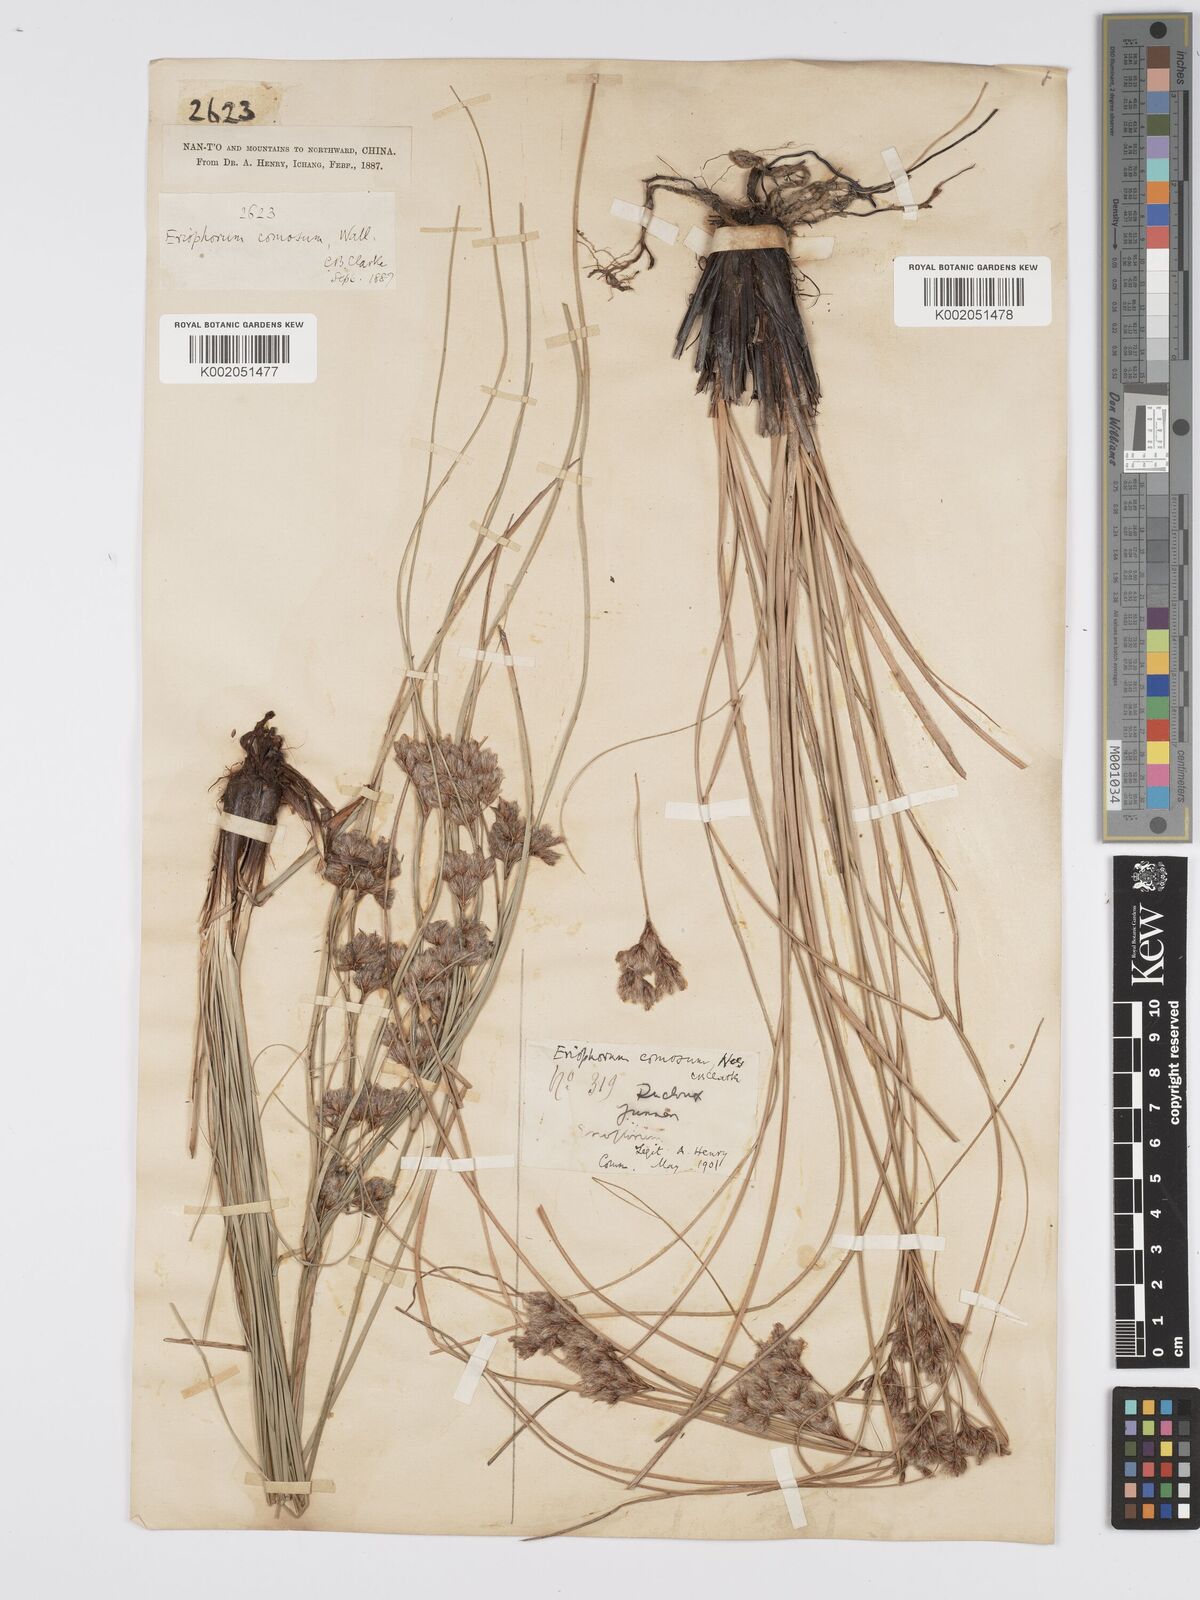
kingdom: Plantae
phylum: Tracheophyta
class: Liliopsida
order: Poales
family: Cyperaceae
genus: Erioscirpus
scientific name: Erioscirpus comosus
